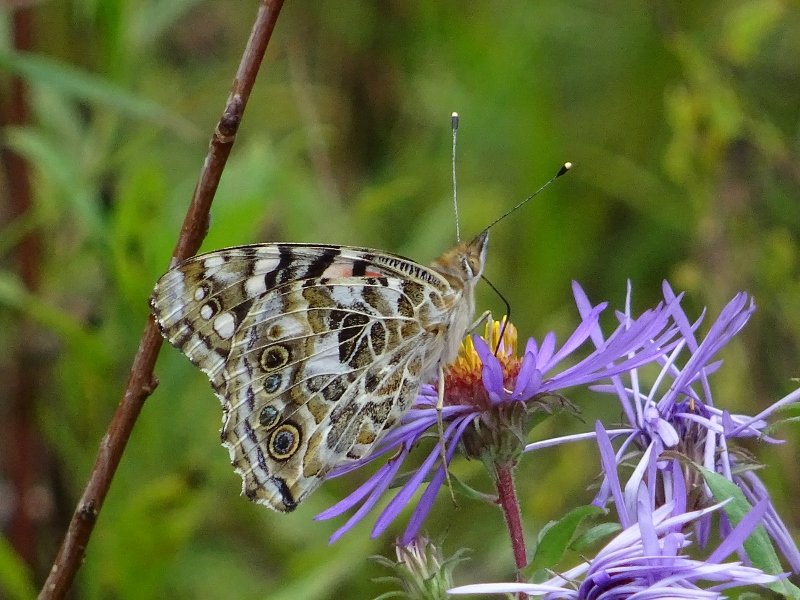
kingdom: Animalia
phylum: Arthropoda
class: Insecta
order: Lepidoptera
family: Nymphalidae
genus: Vanessa
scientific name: Vanessa cardui
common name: Painted Lady
